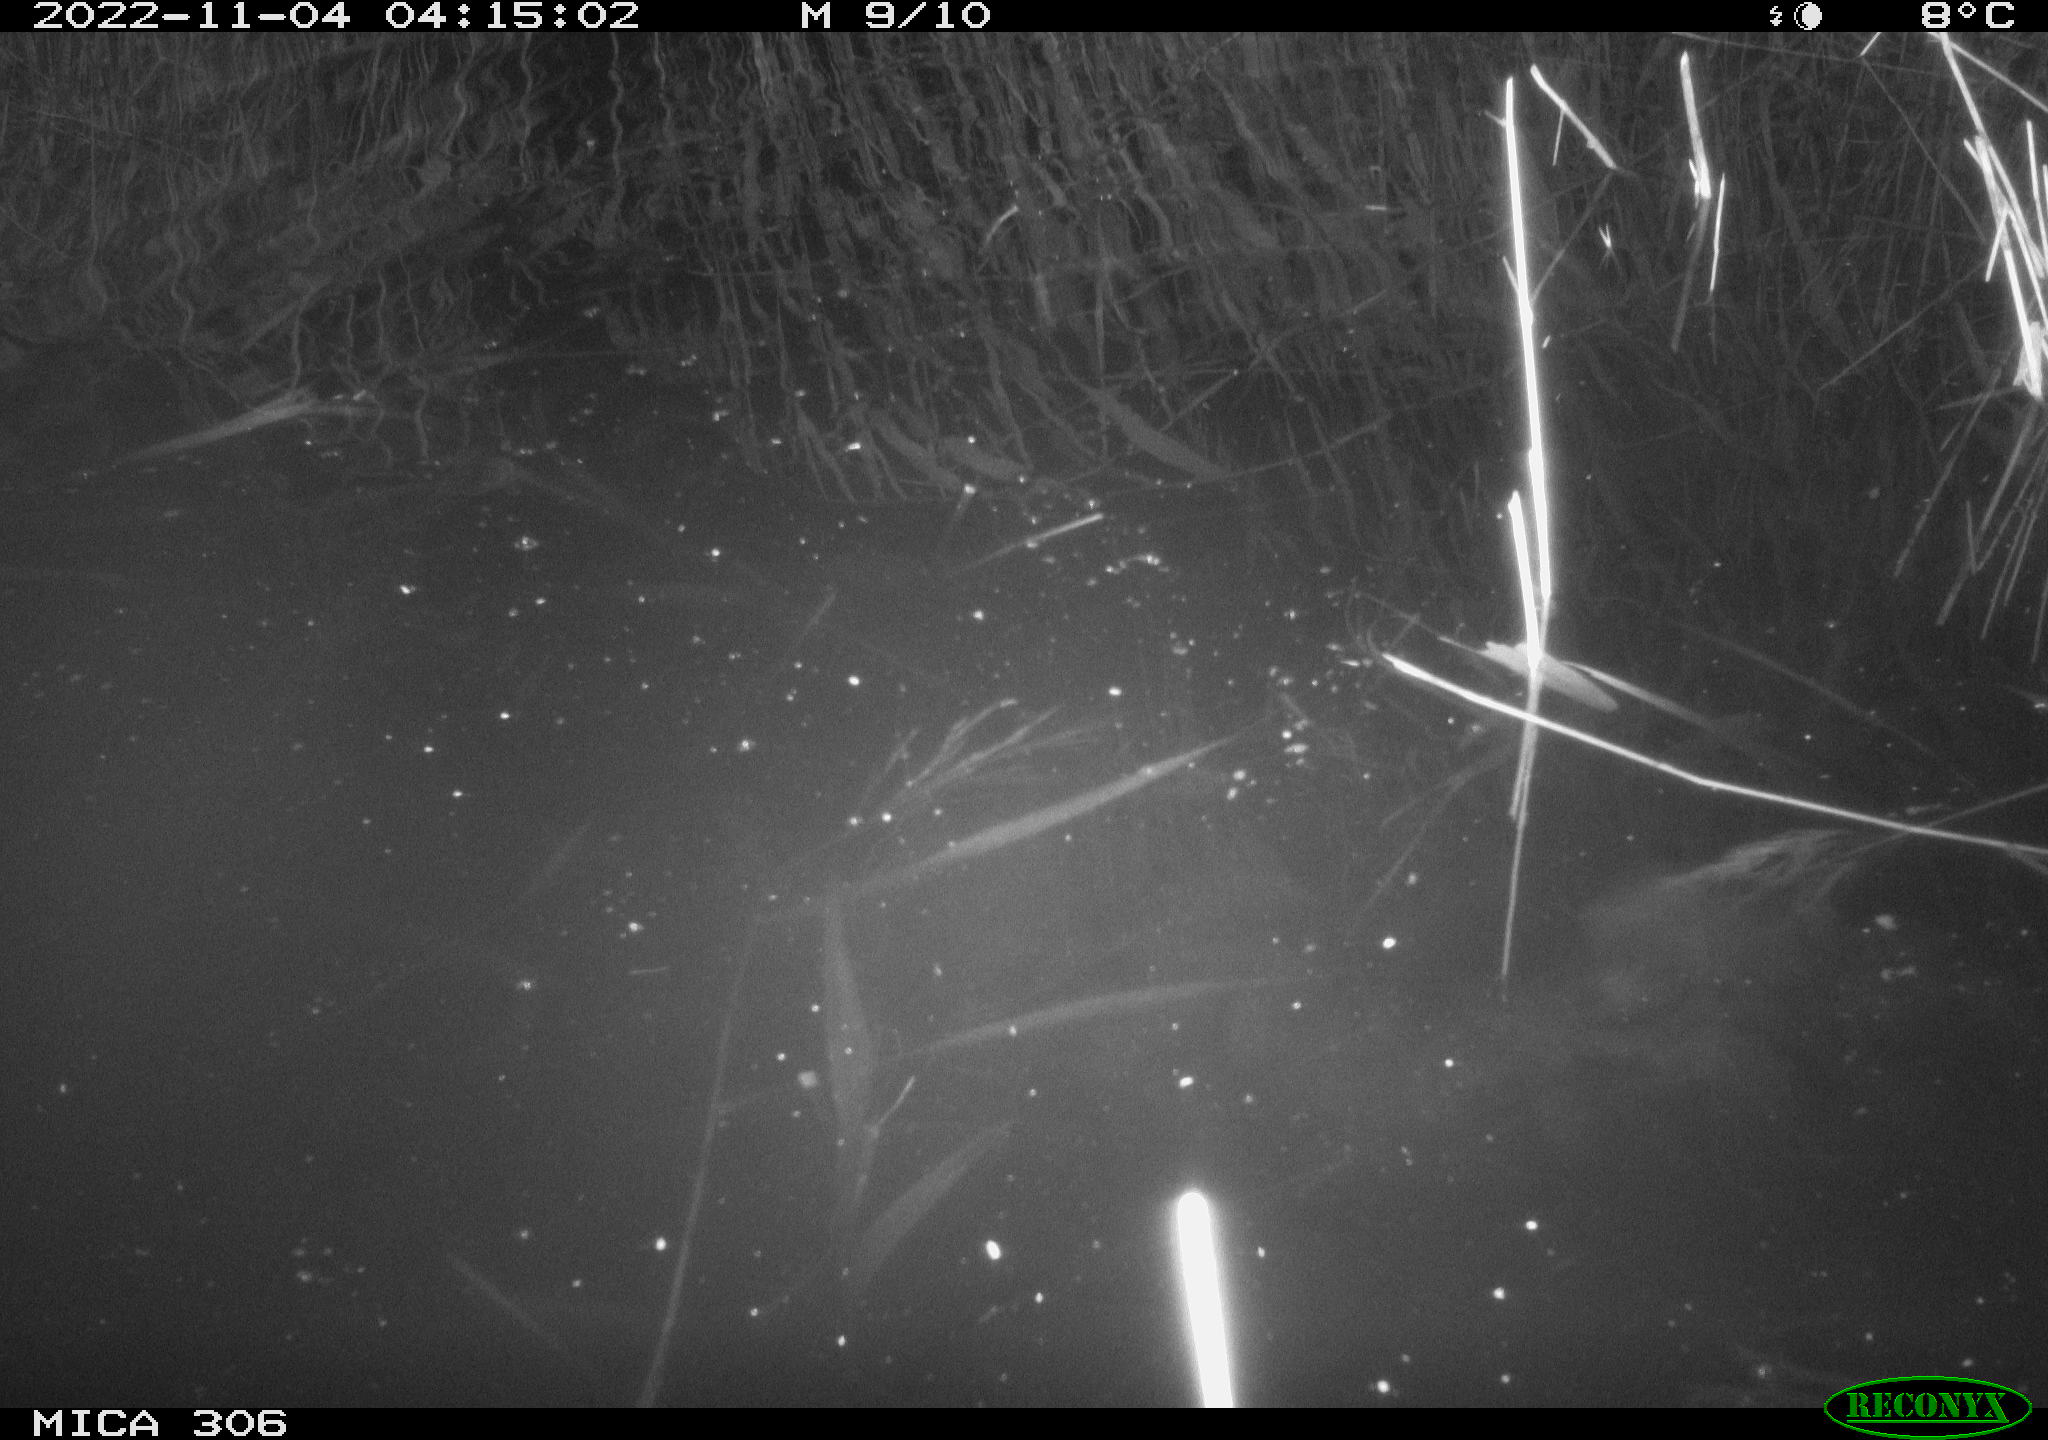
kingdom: Animalia
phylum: Chordata
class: Mammalia
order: Rodentia
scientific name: Rodentia
